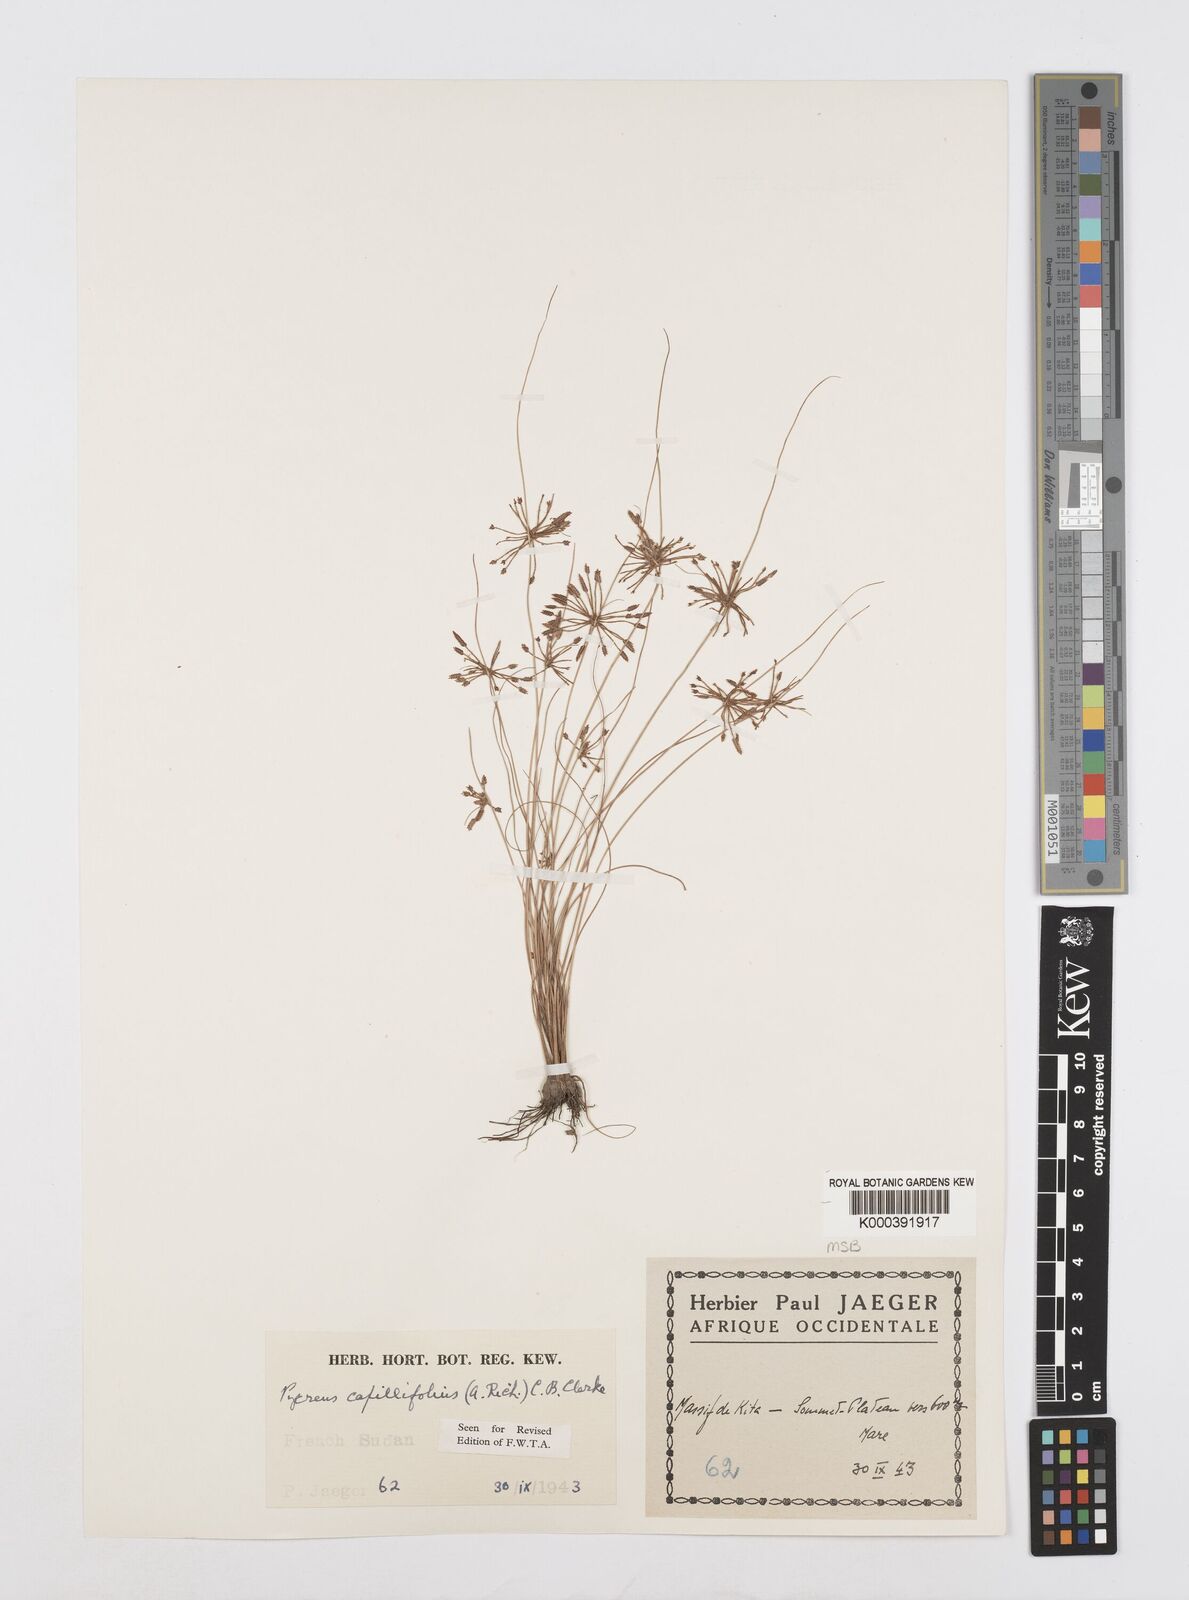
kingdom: Plantae
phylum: Tracheophyta
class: Liliopsida
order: Poales
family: Cyperaceae
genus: Cyperus
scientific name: Cyperus capillifolius
